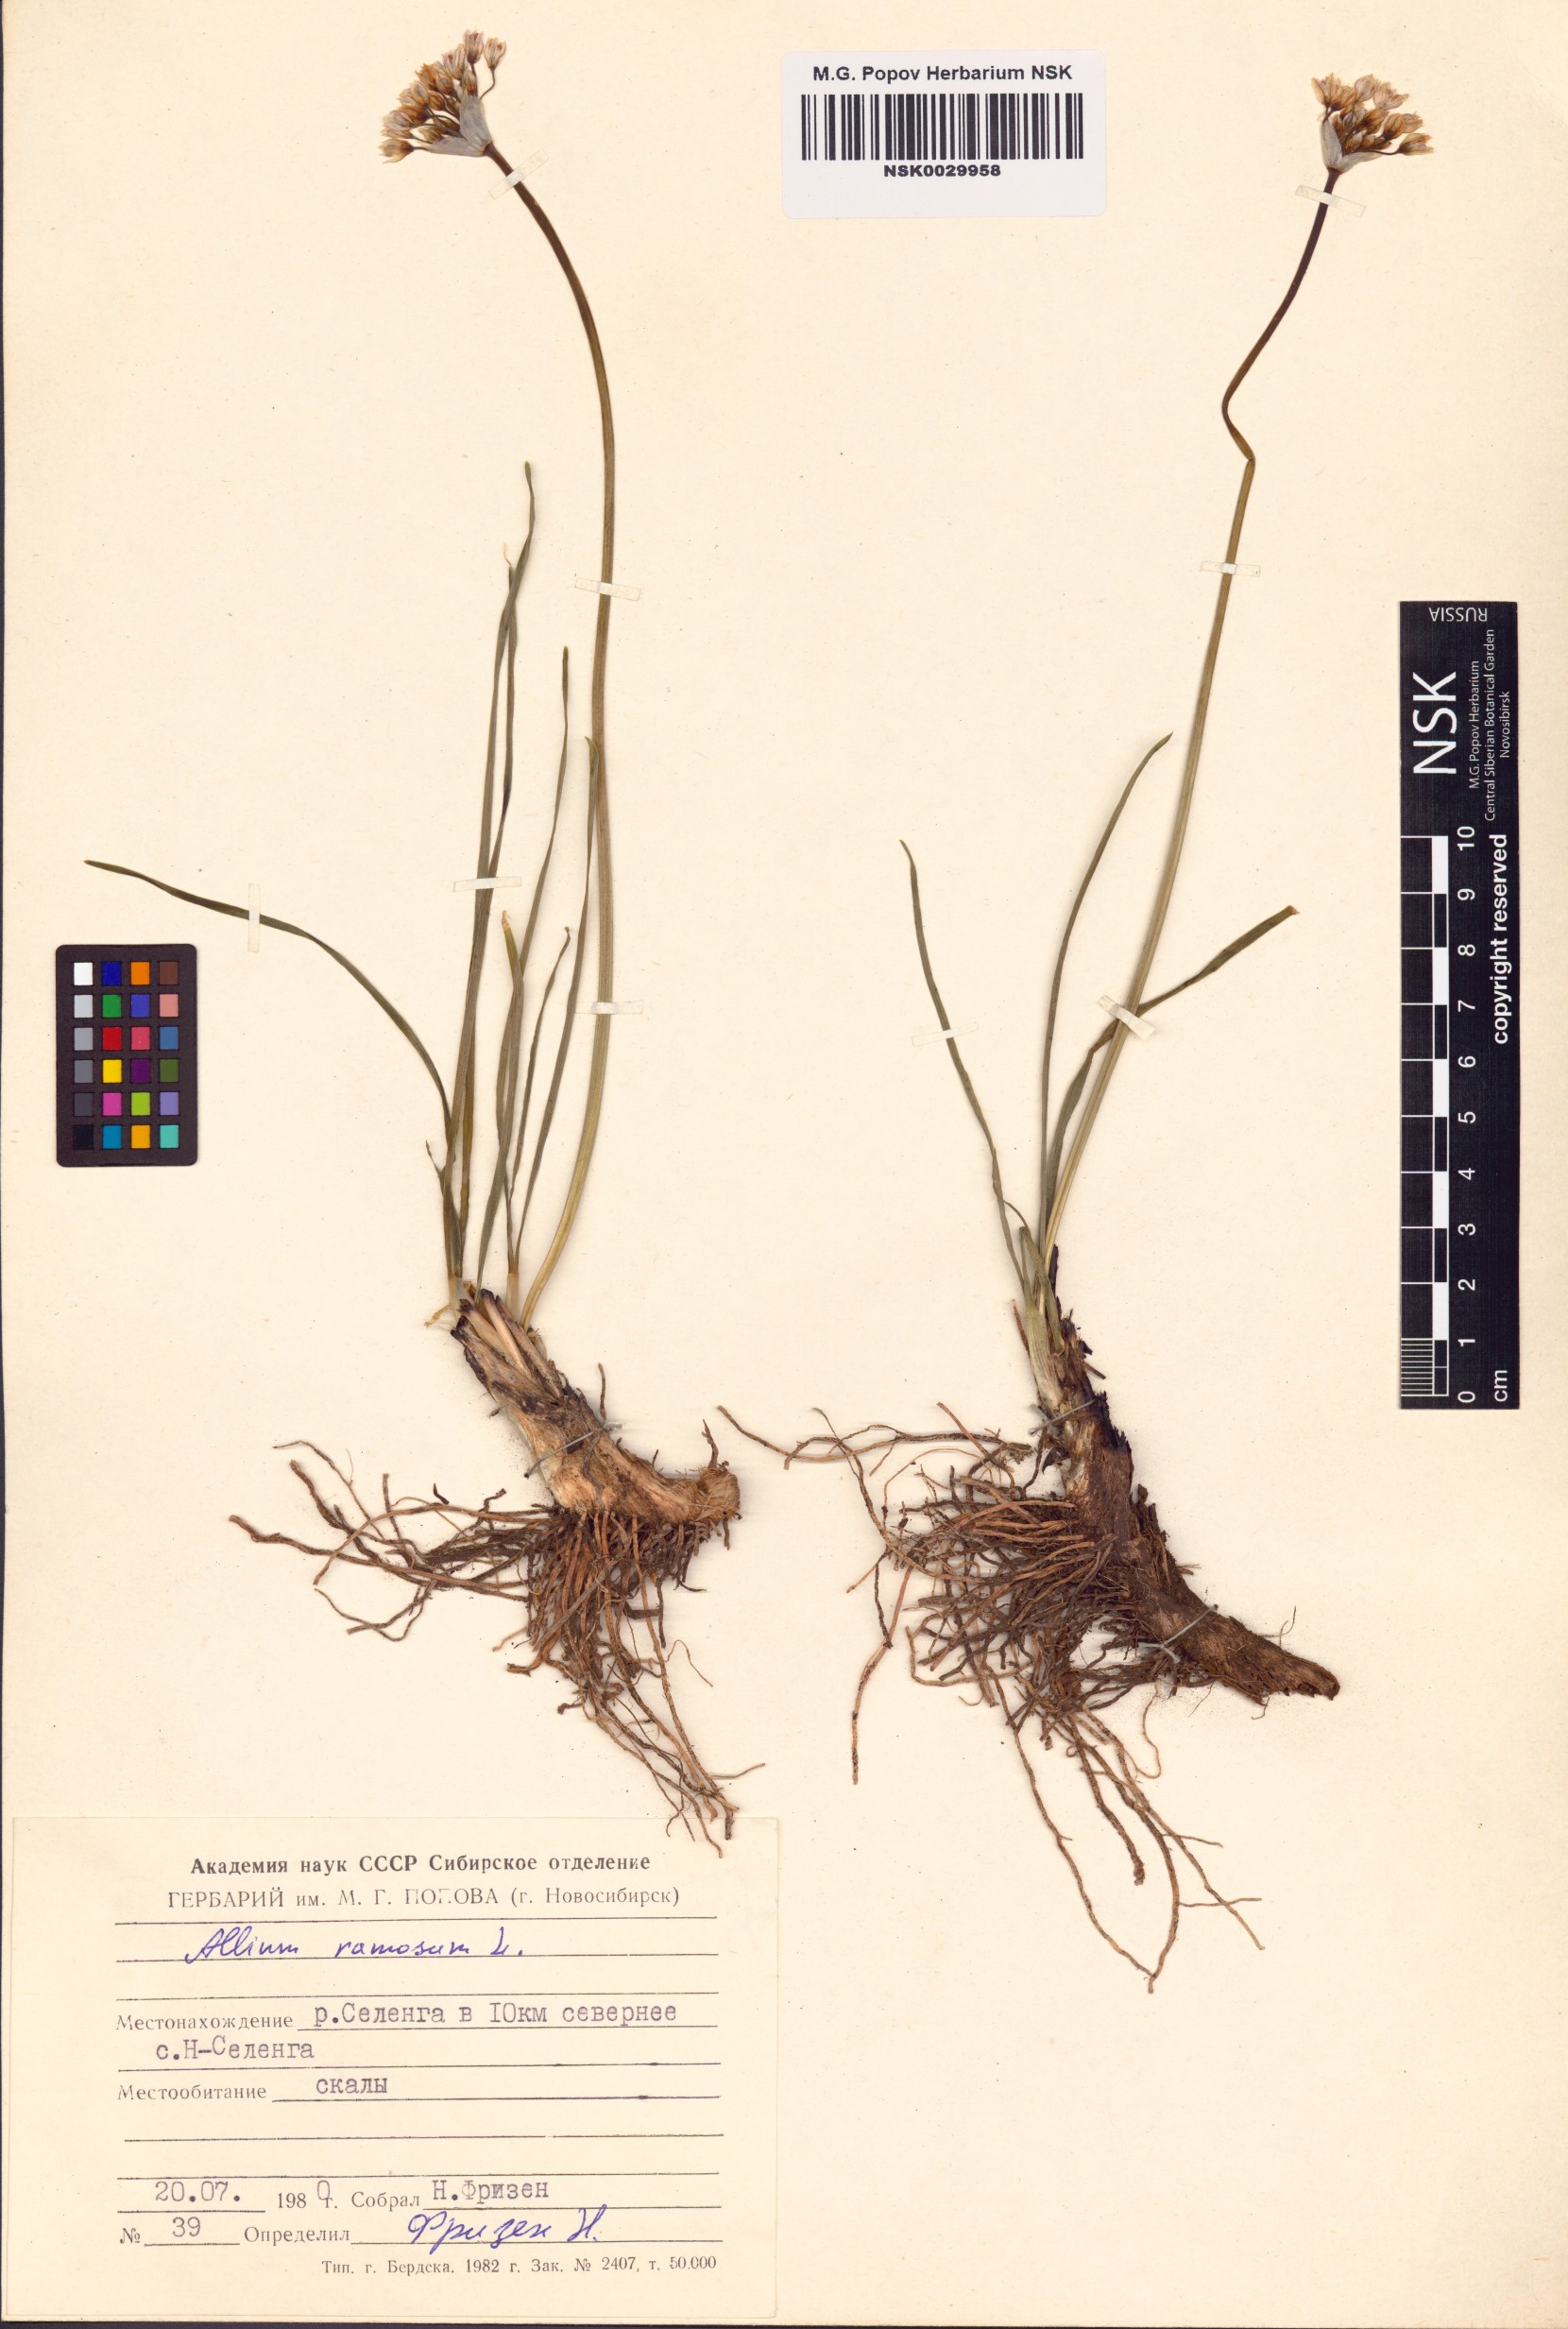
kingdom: Plantae
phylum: Tracheophyta
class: Liliopsida
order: Asparagales
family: Amaryllidaceae
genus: Allium
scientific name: Allium ramosum
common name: Fragrant garlic
